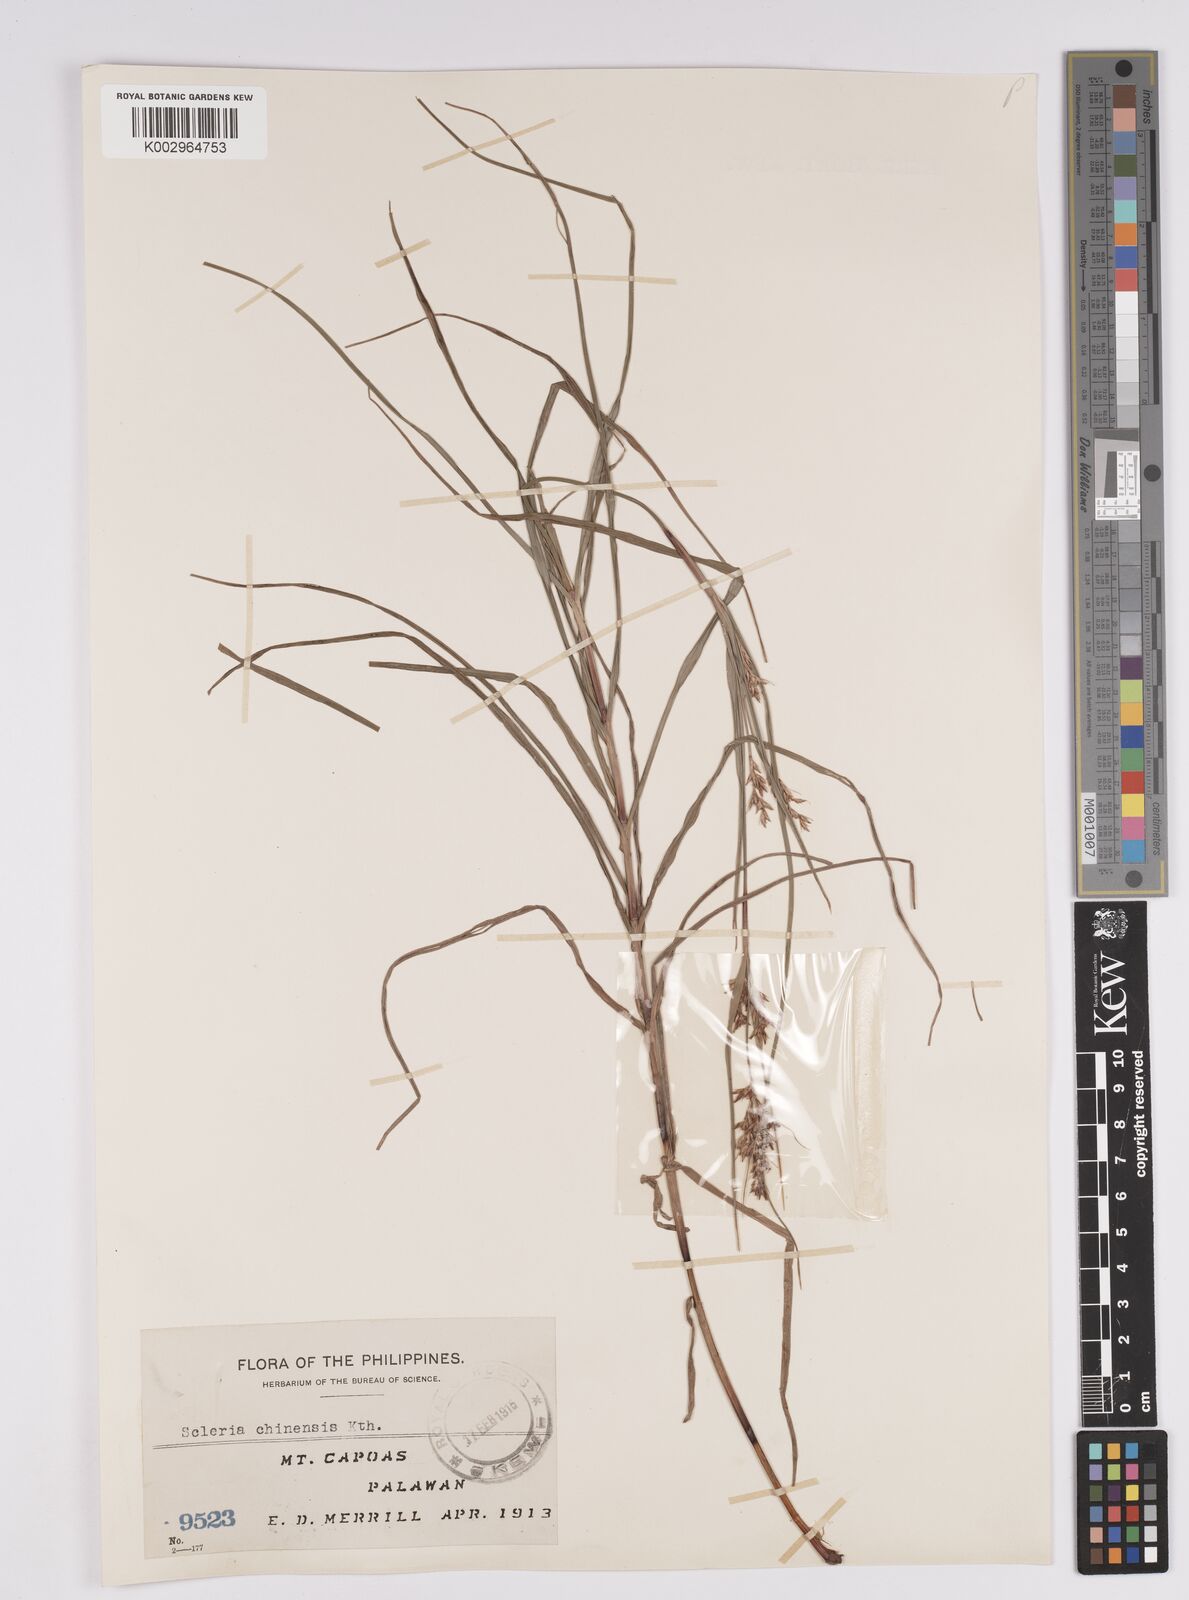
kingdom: Plantae
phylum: Tracheophyta
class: Liliopsida
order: Poales
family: Cyperaceae
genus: Scleria
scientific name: Scleria ciliaris
